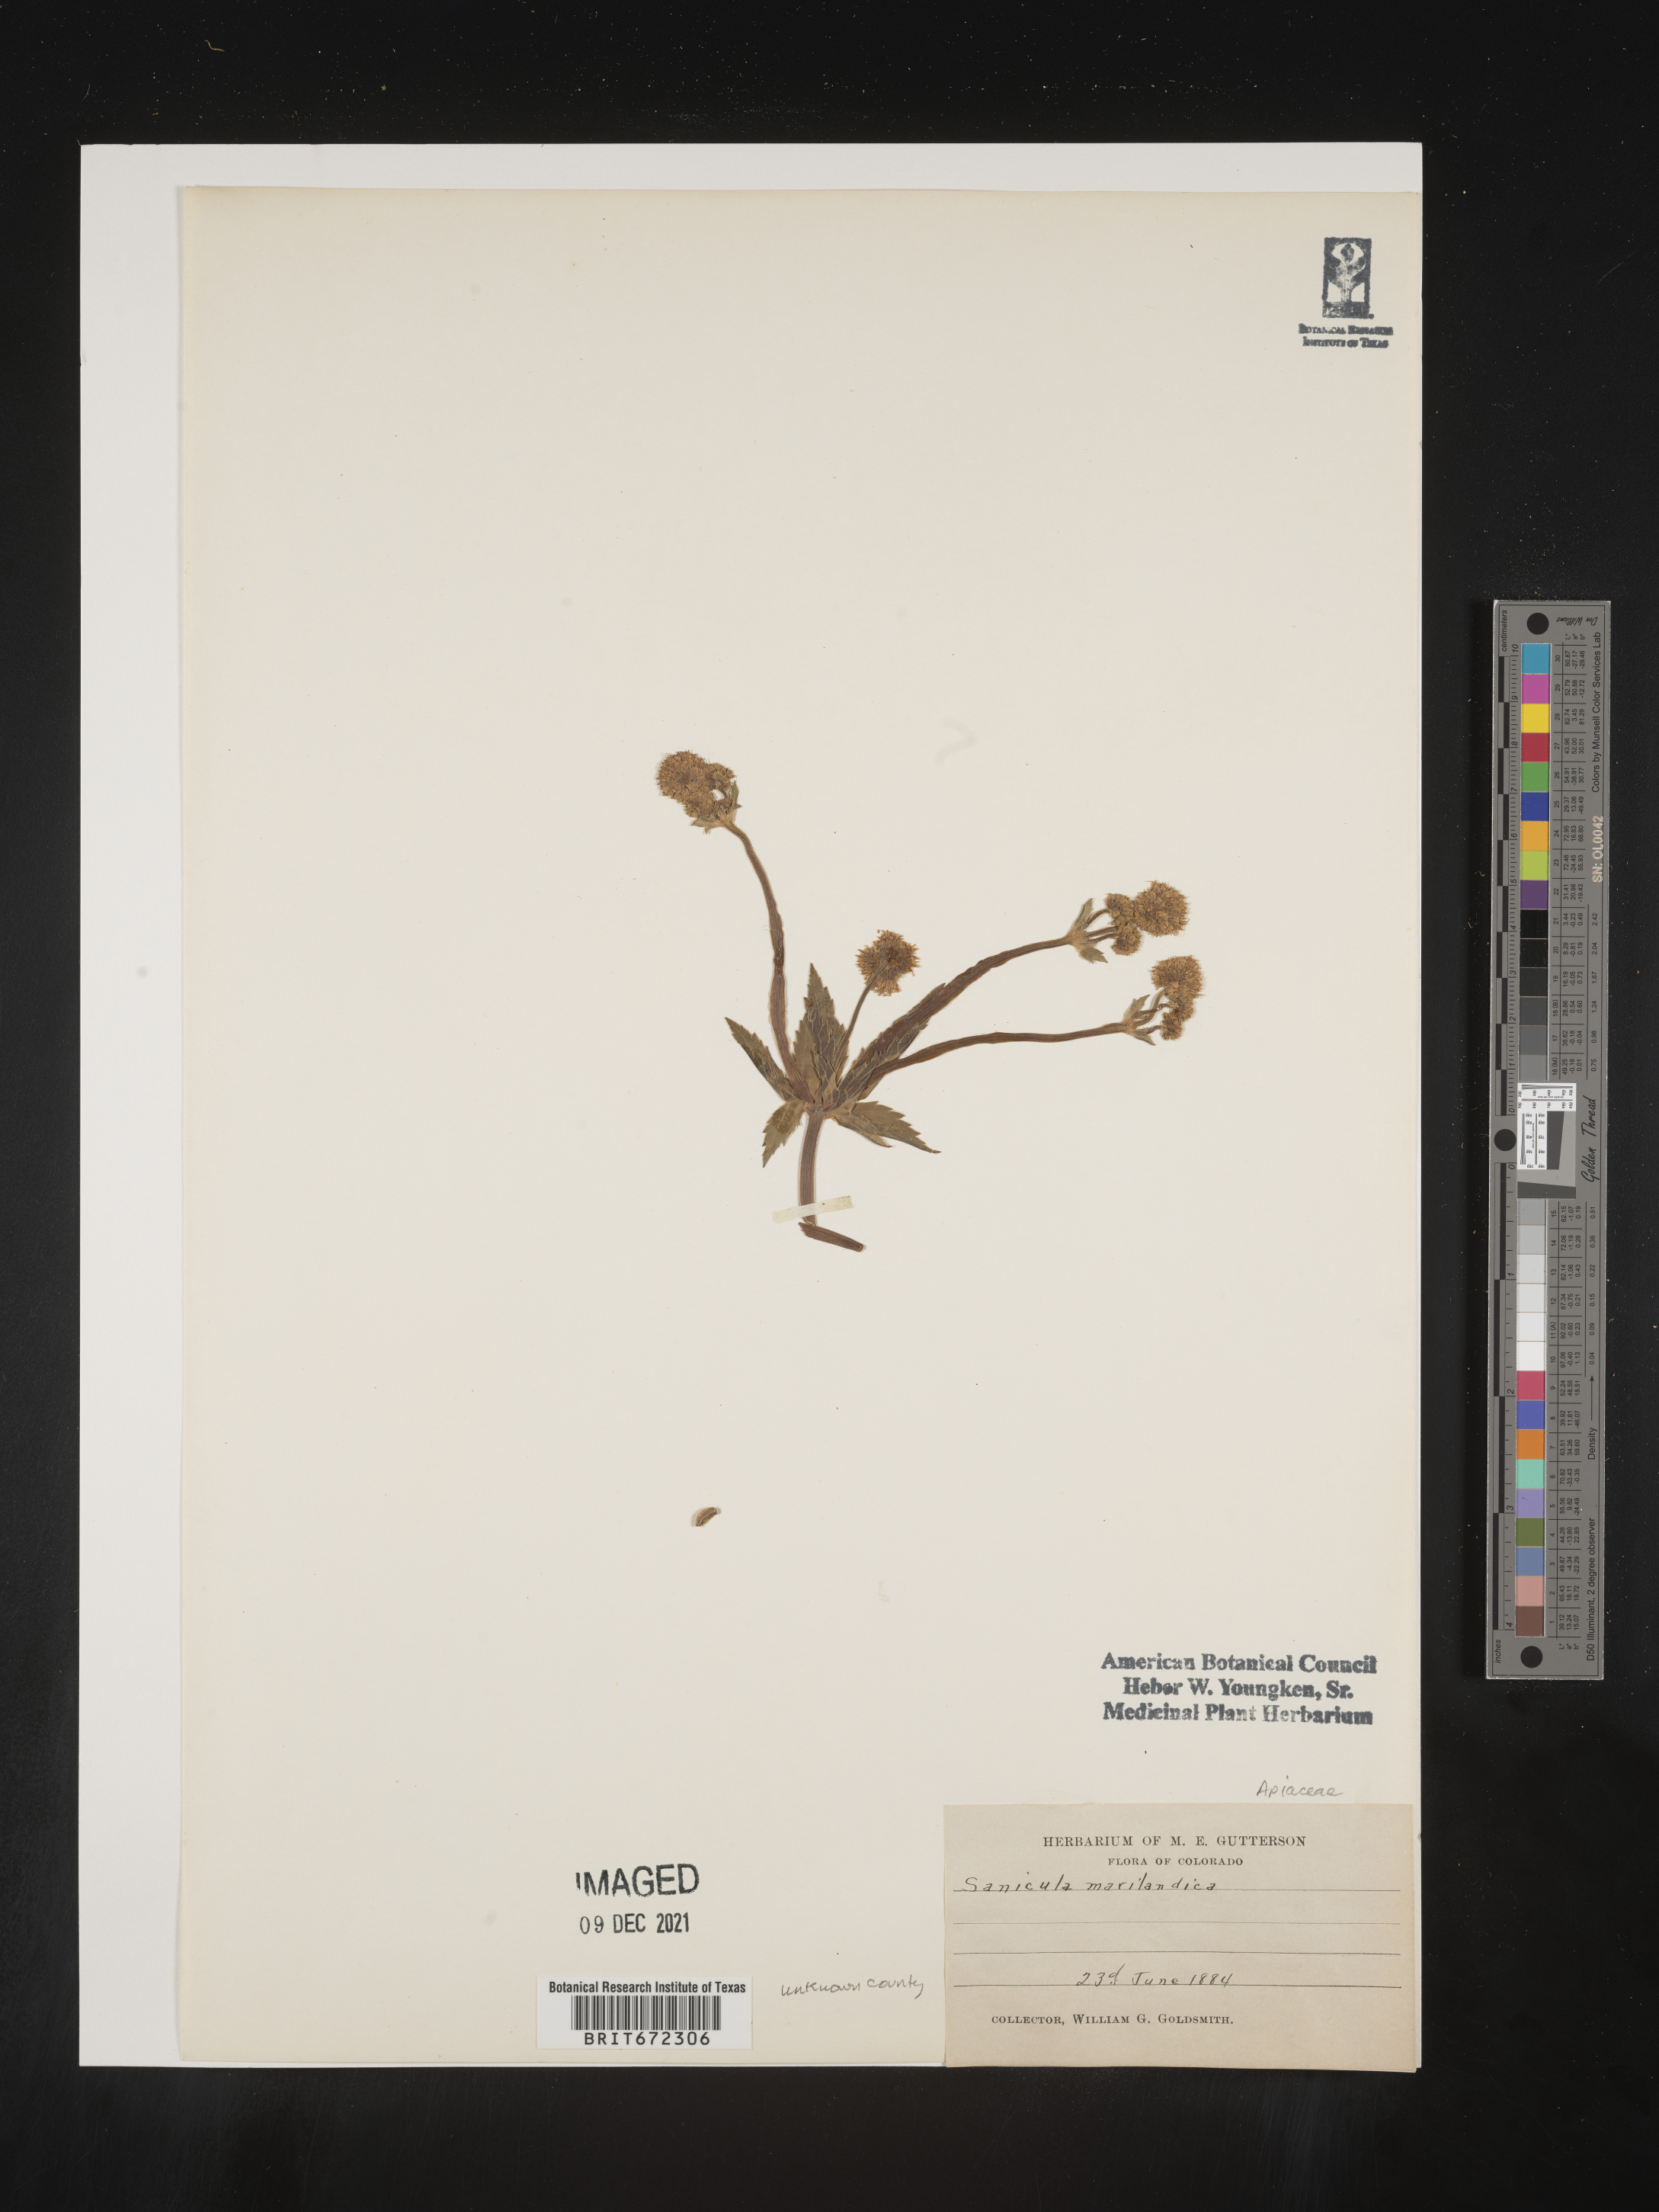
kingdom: Plantae
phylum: Tracheophyta
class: Magnoliopsida
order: Apiales
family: Apiaceae
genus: Sanicula
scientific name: Sanicula marilandica
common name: Black snakeroot
